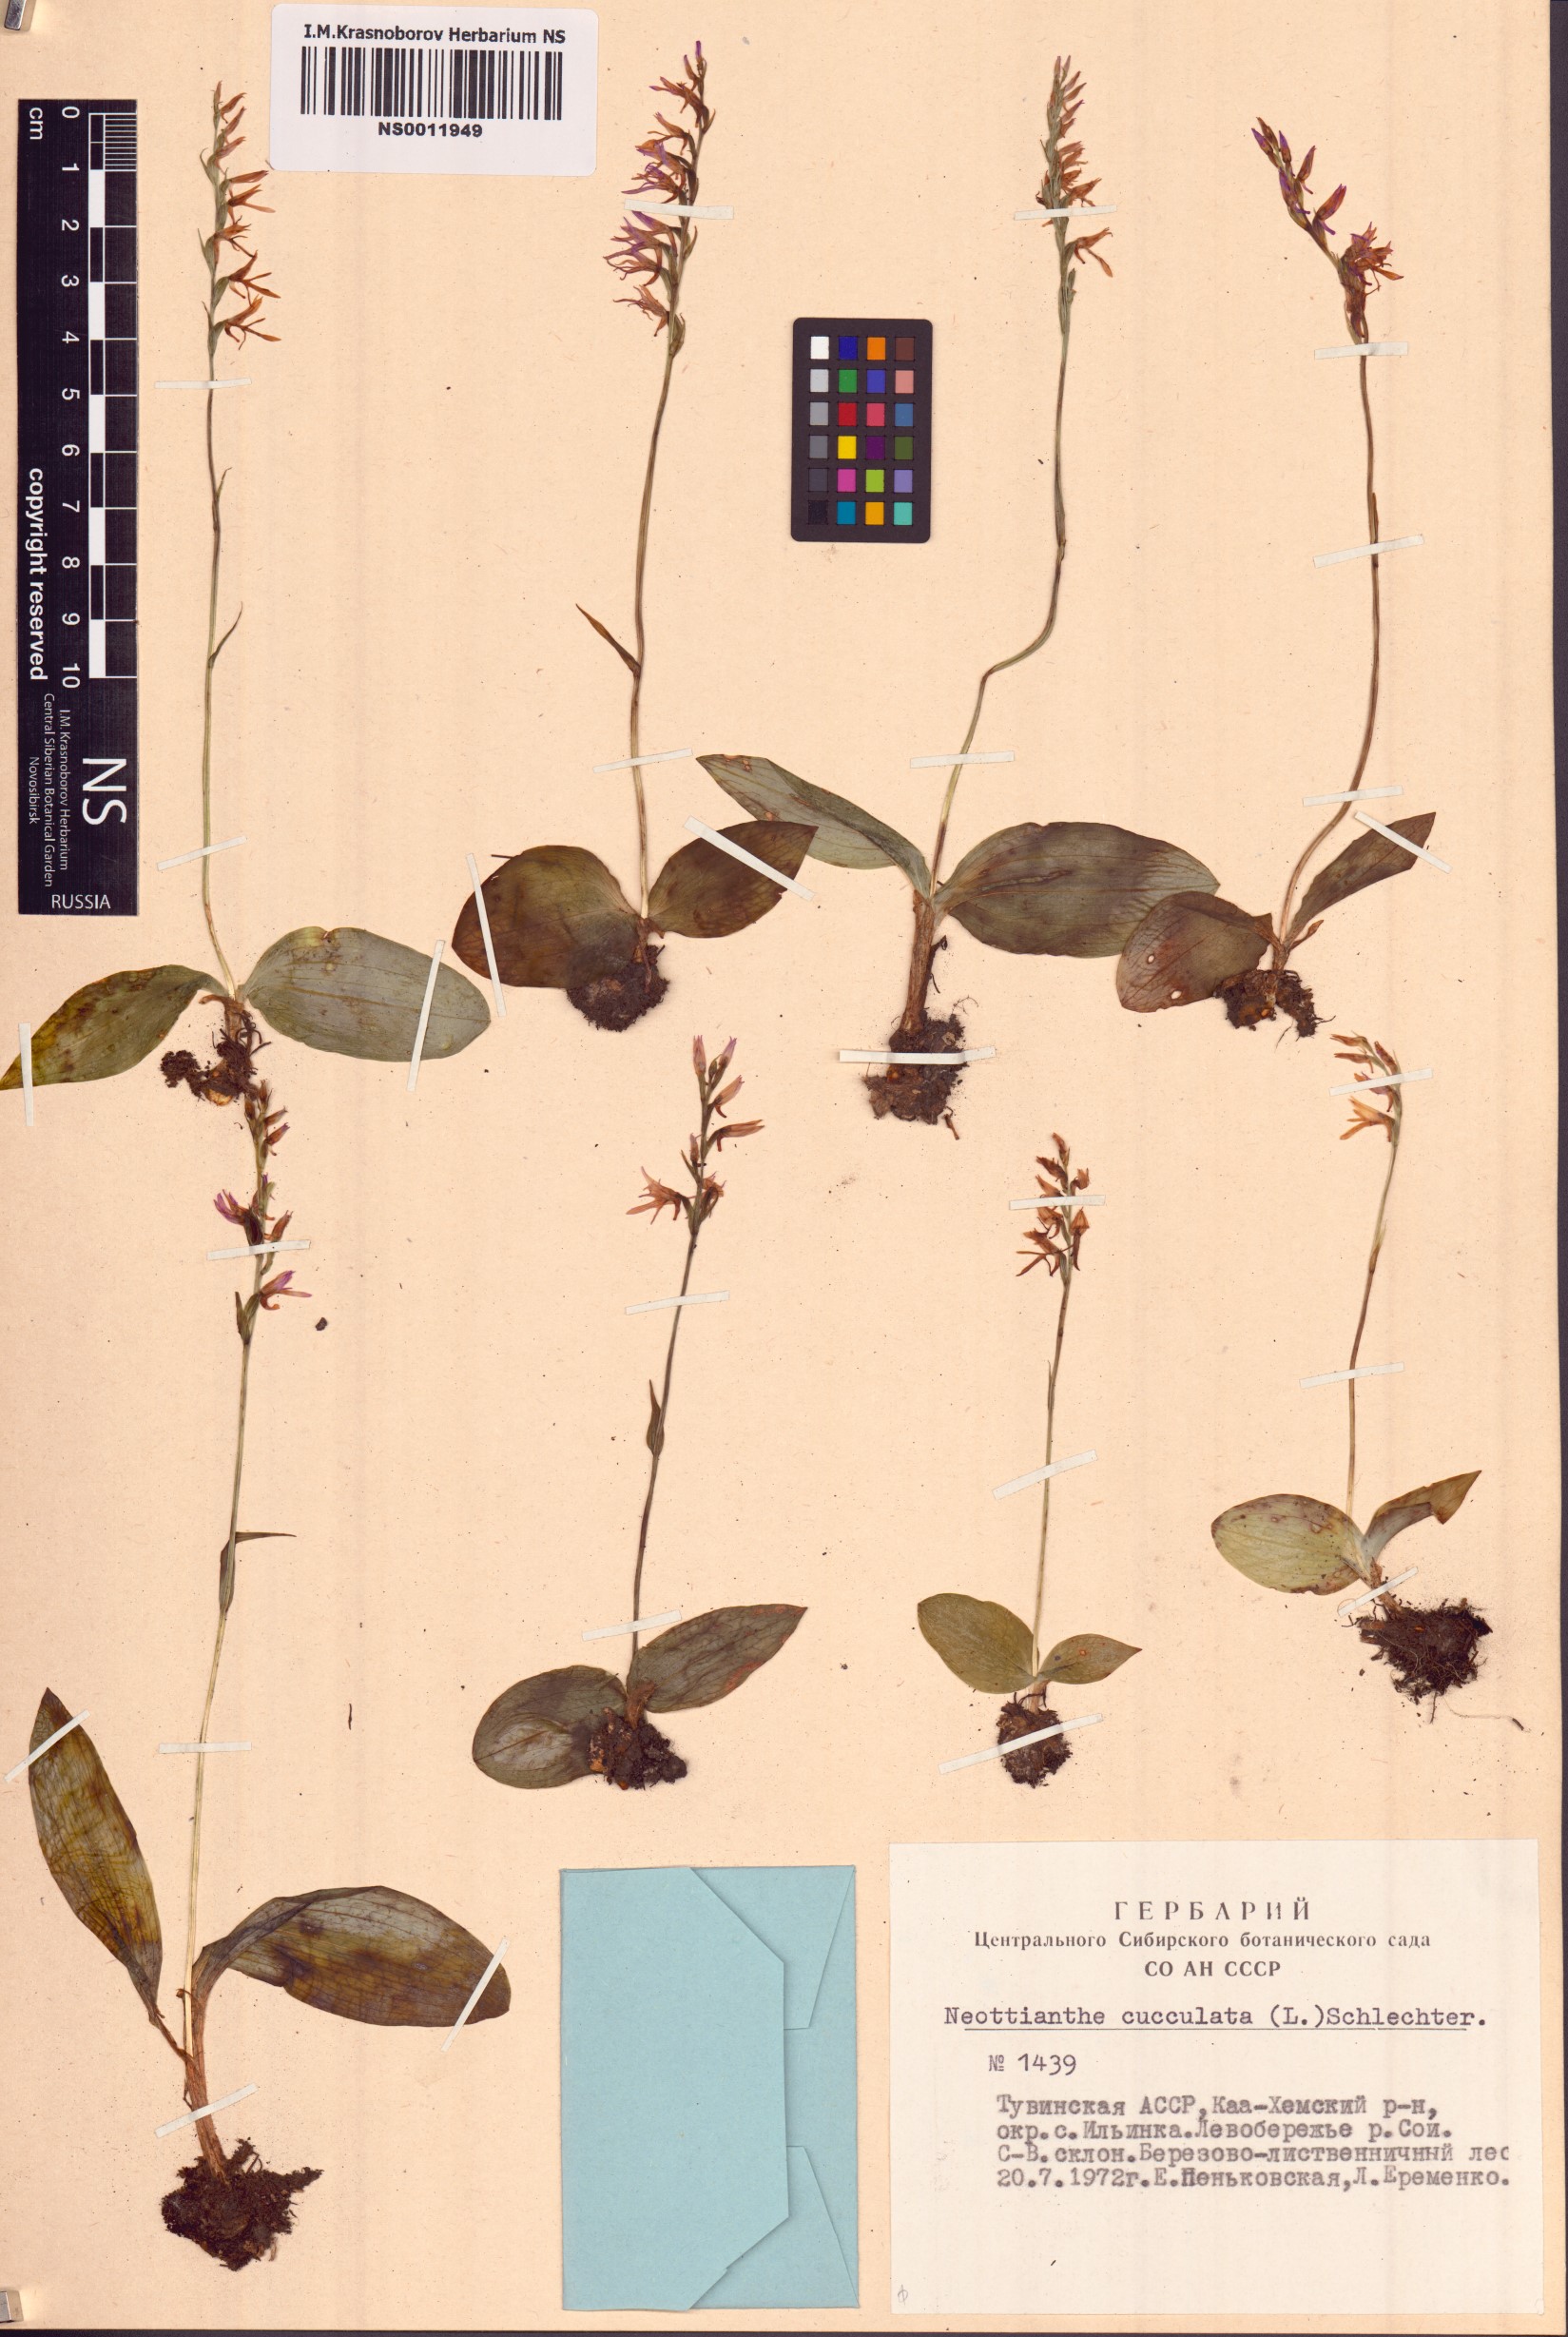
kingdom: Plantae
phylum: Tracheophyta
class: Liliopsida
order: Asparagales
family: Orchidaceae
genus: Hemipilia
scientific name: Hemipilia cucullata
